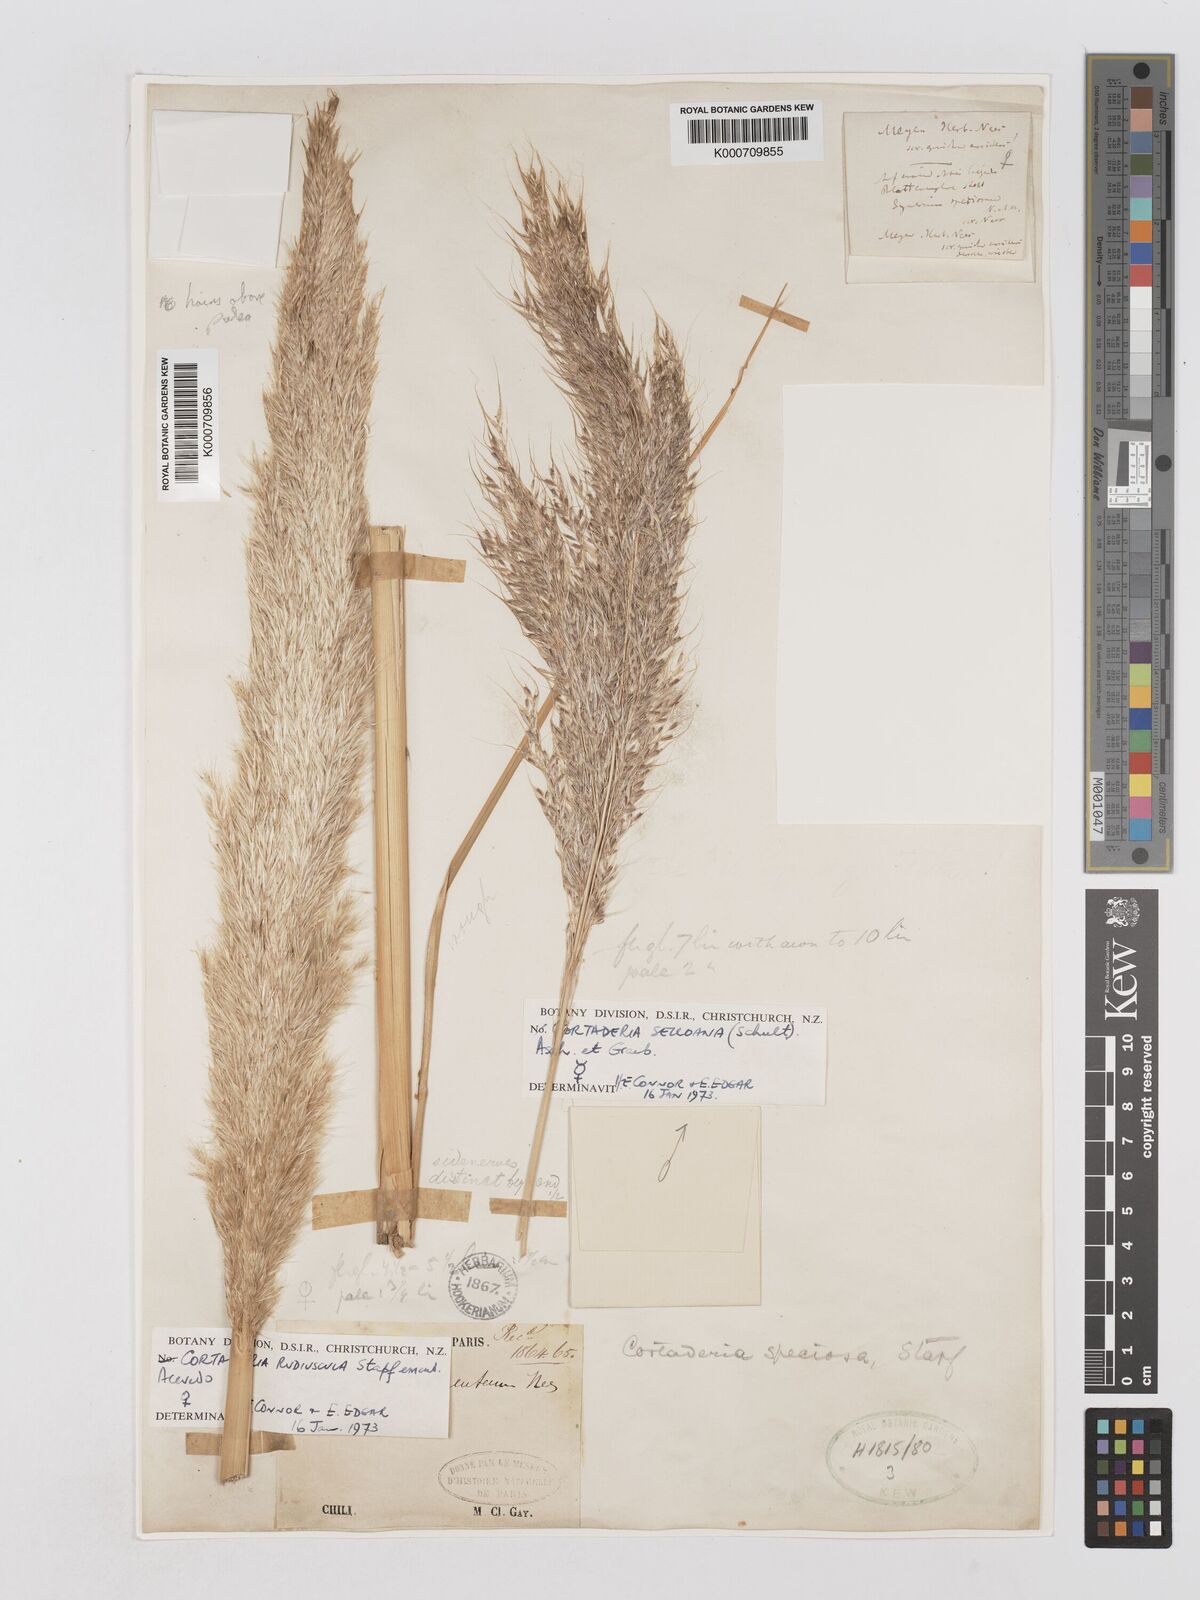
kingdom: Plantae
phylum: Tracheophyta
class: Liliopsida
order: Poales
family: Poaceae
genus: Cortaderia
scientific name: Cortaderia rudiuscula
